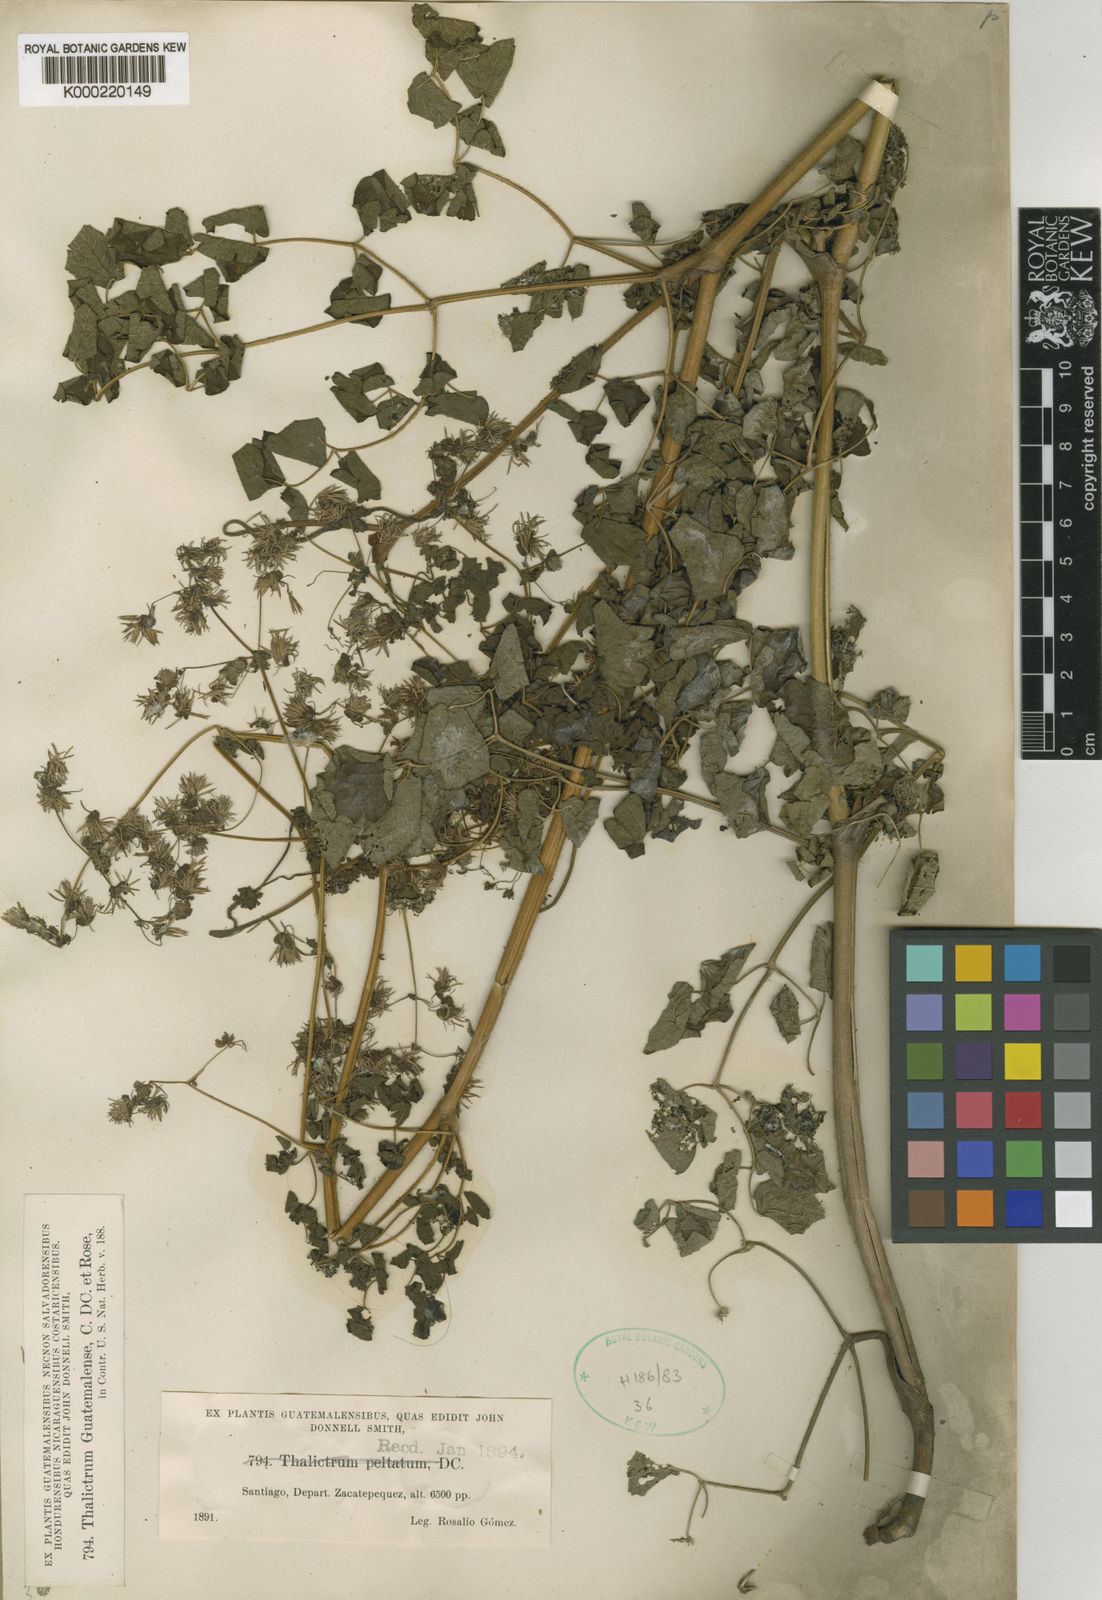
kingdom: Plantae
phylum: Tracheophyta
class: Magnoliopsida
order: Ranunculales
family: Ranunculaceae
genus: Thalictrum
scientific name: Thalictrum guatemalense
